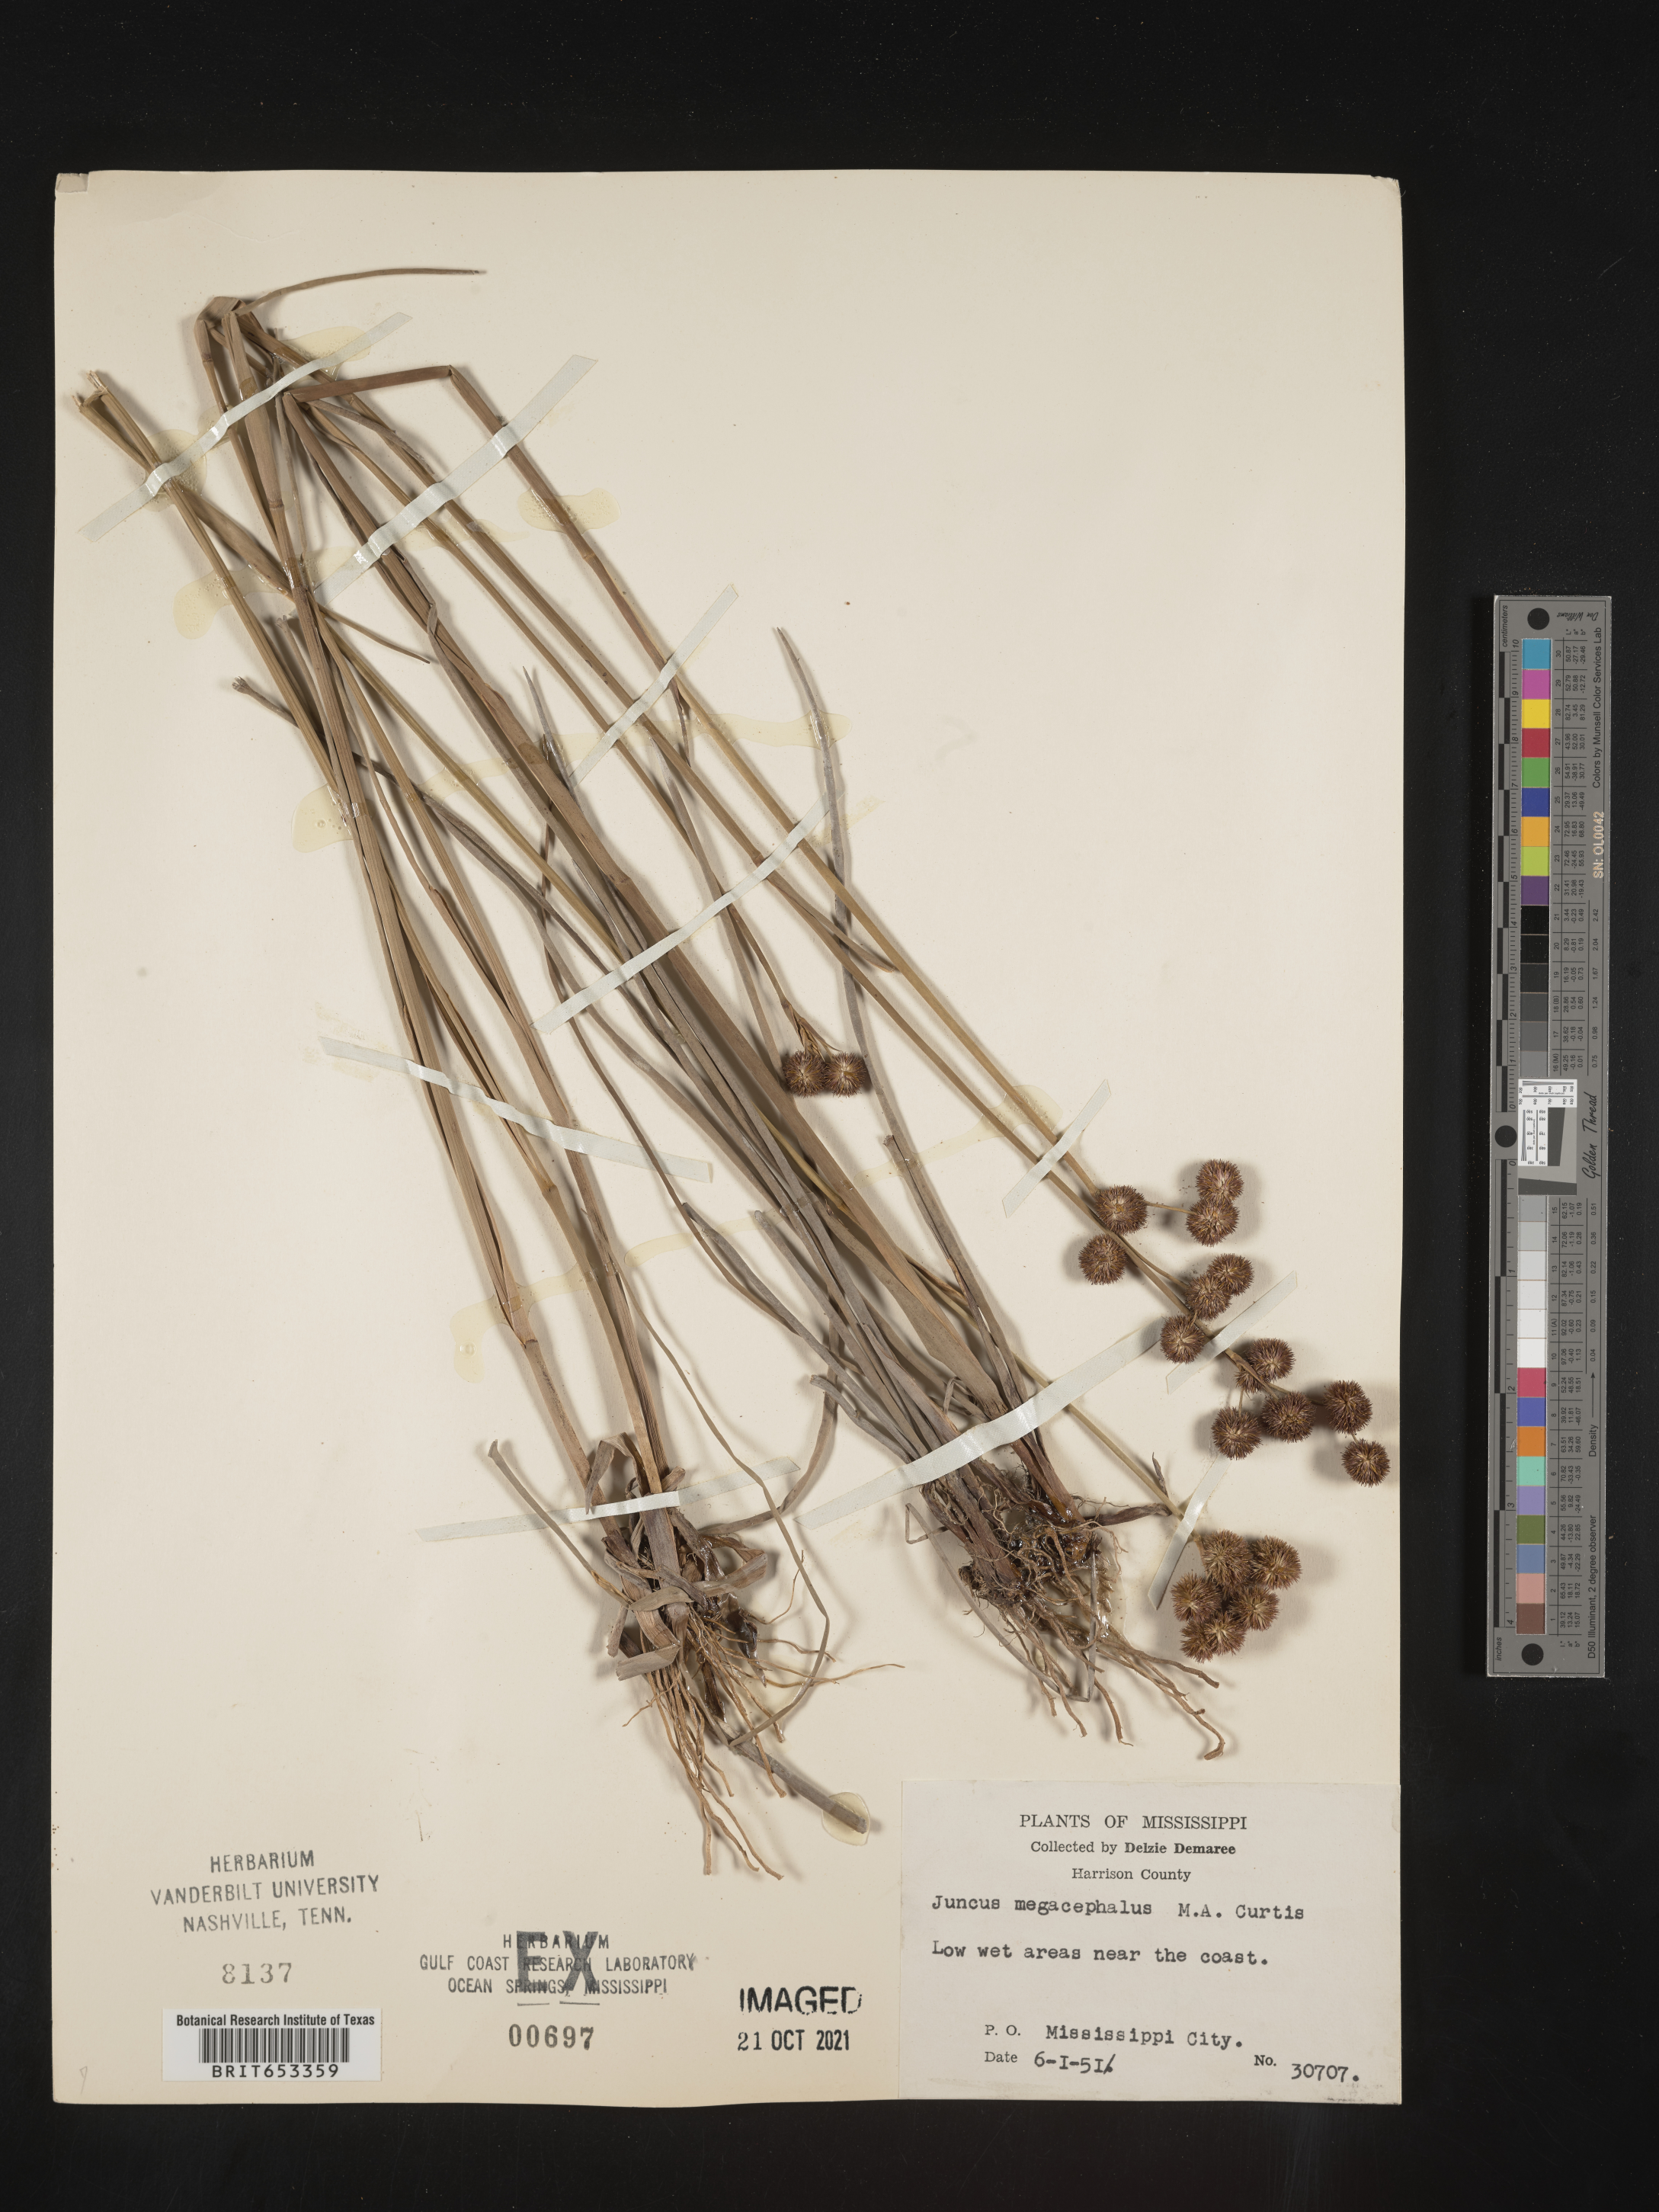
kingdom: Plantae
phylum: Tracheophyta
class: Liliopsida
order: Poales
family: Juncaceae
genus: Juncus
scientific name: Juncus megacephalus
